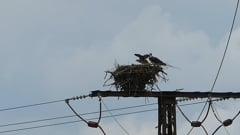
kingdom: Animalia
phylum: Chordata
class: Aves
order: Accipitriformes
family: Pandionidae
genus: Pandion
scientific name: Pandion haliaetus
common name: Osprey
